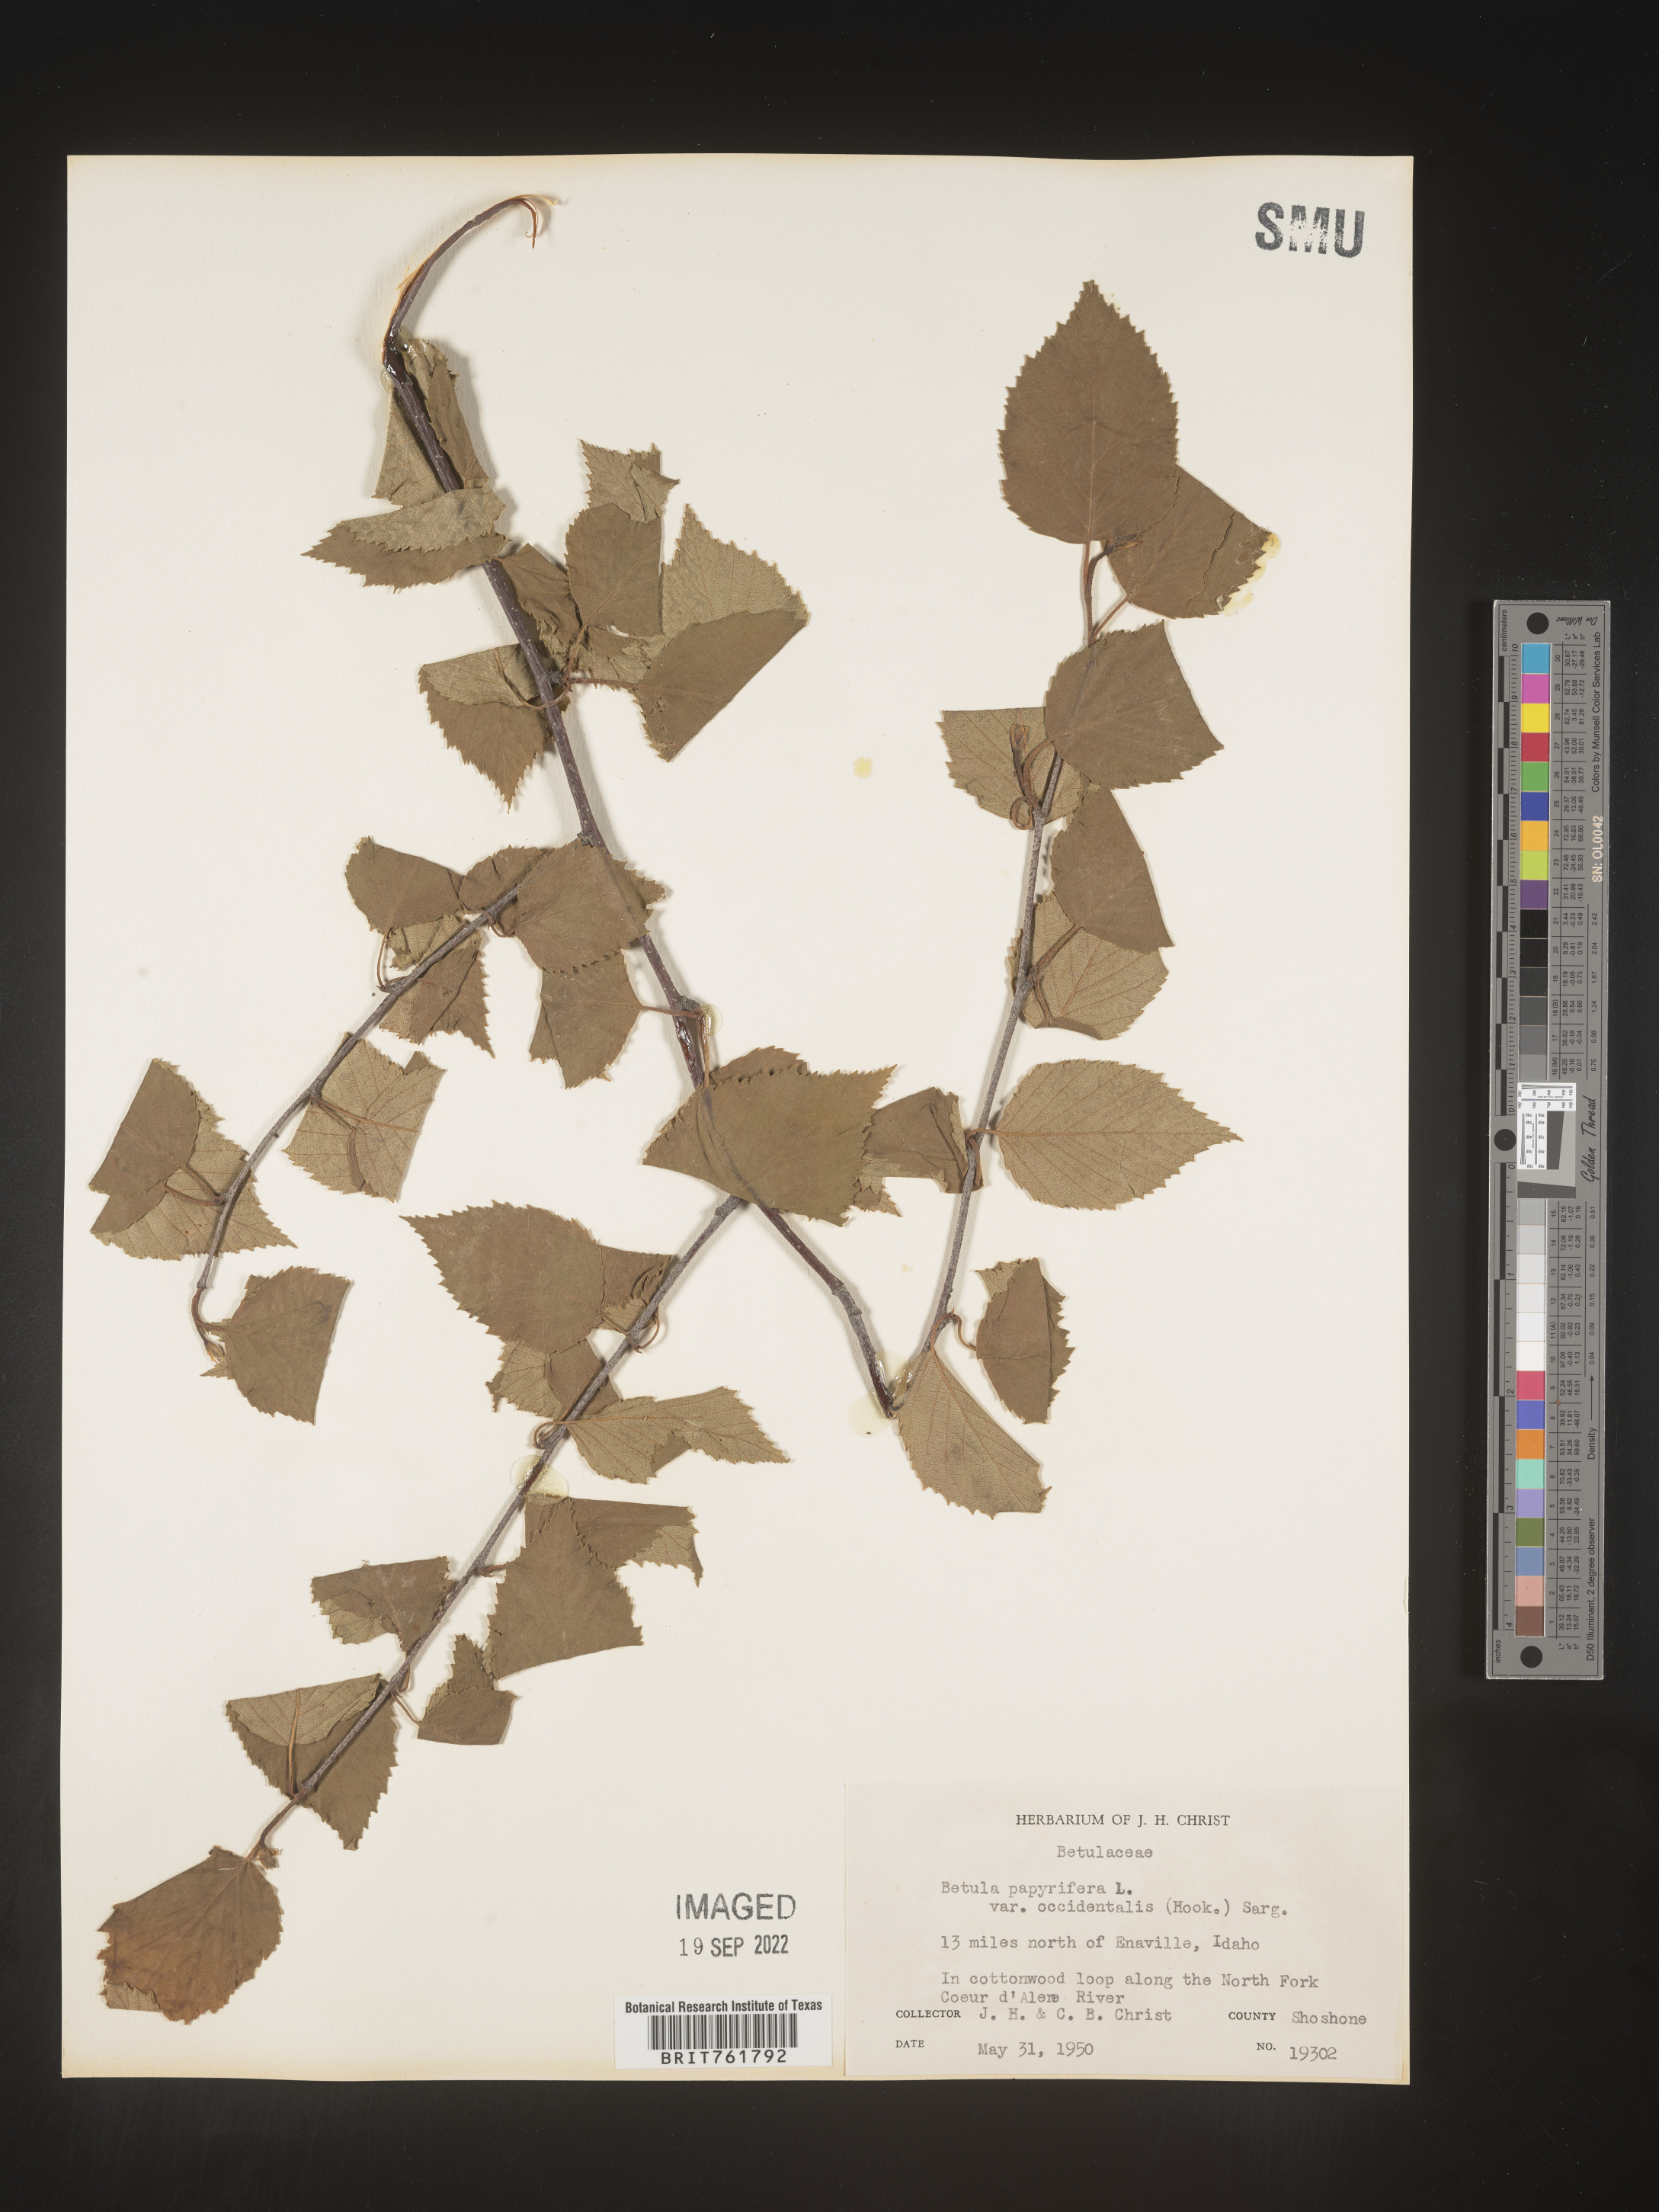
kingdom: Plantae
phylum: Tracheophyta
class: Magnoliopsida
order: Fagales
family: Betulaceae
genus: Betula
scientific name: Betula occidentalis
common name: River birch
